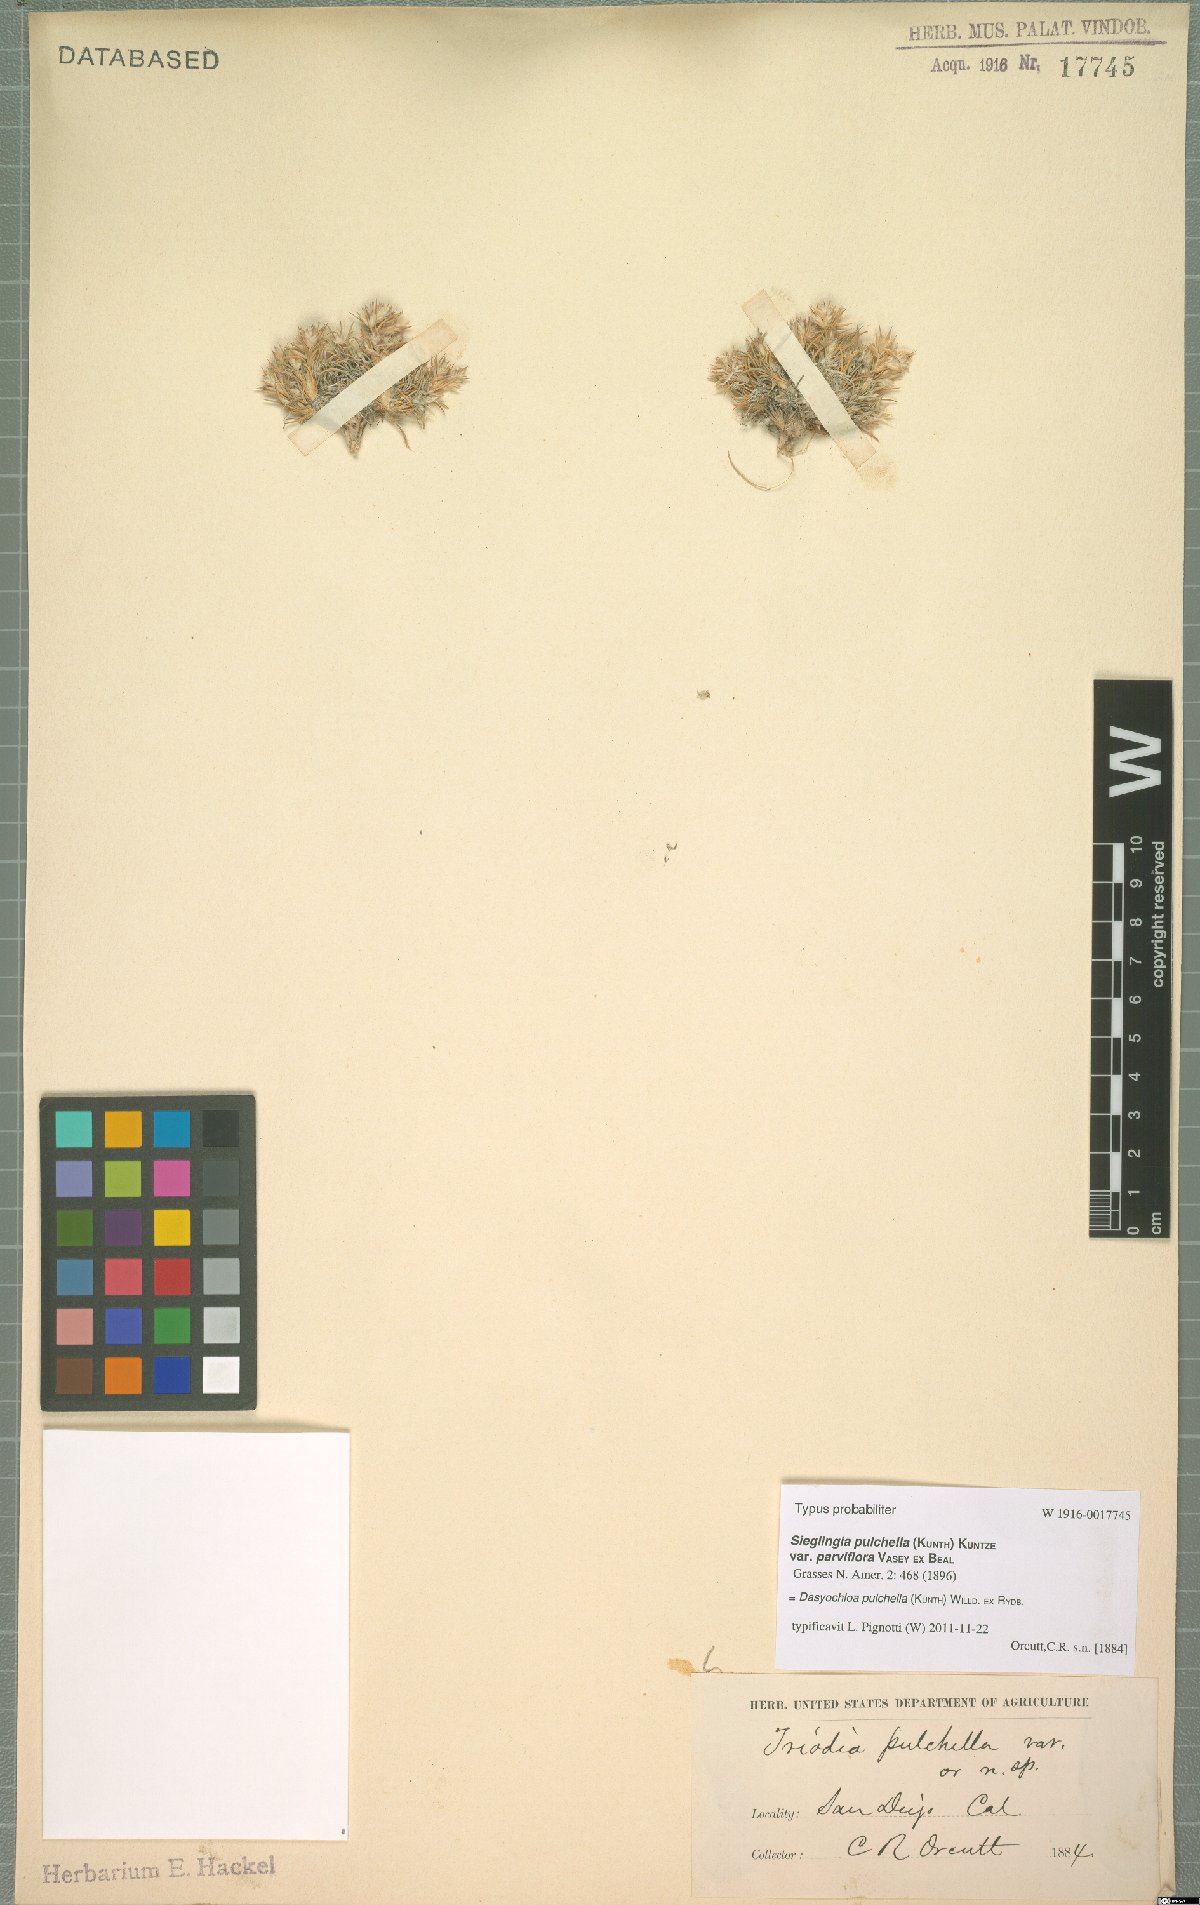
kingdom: Plantae
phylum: Tracheophyta
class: Liliopsida
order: Poales
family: Poaceae
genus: Munroa
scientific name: Munroa pulchella
